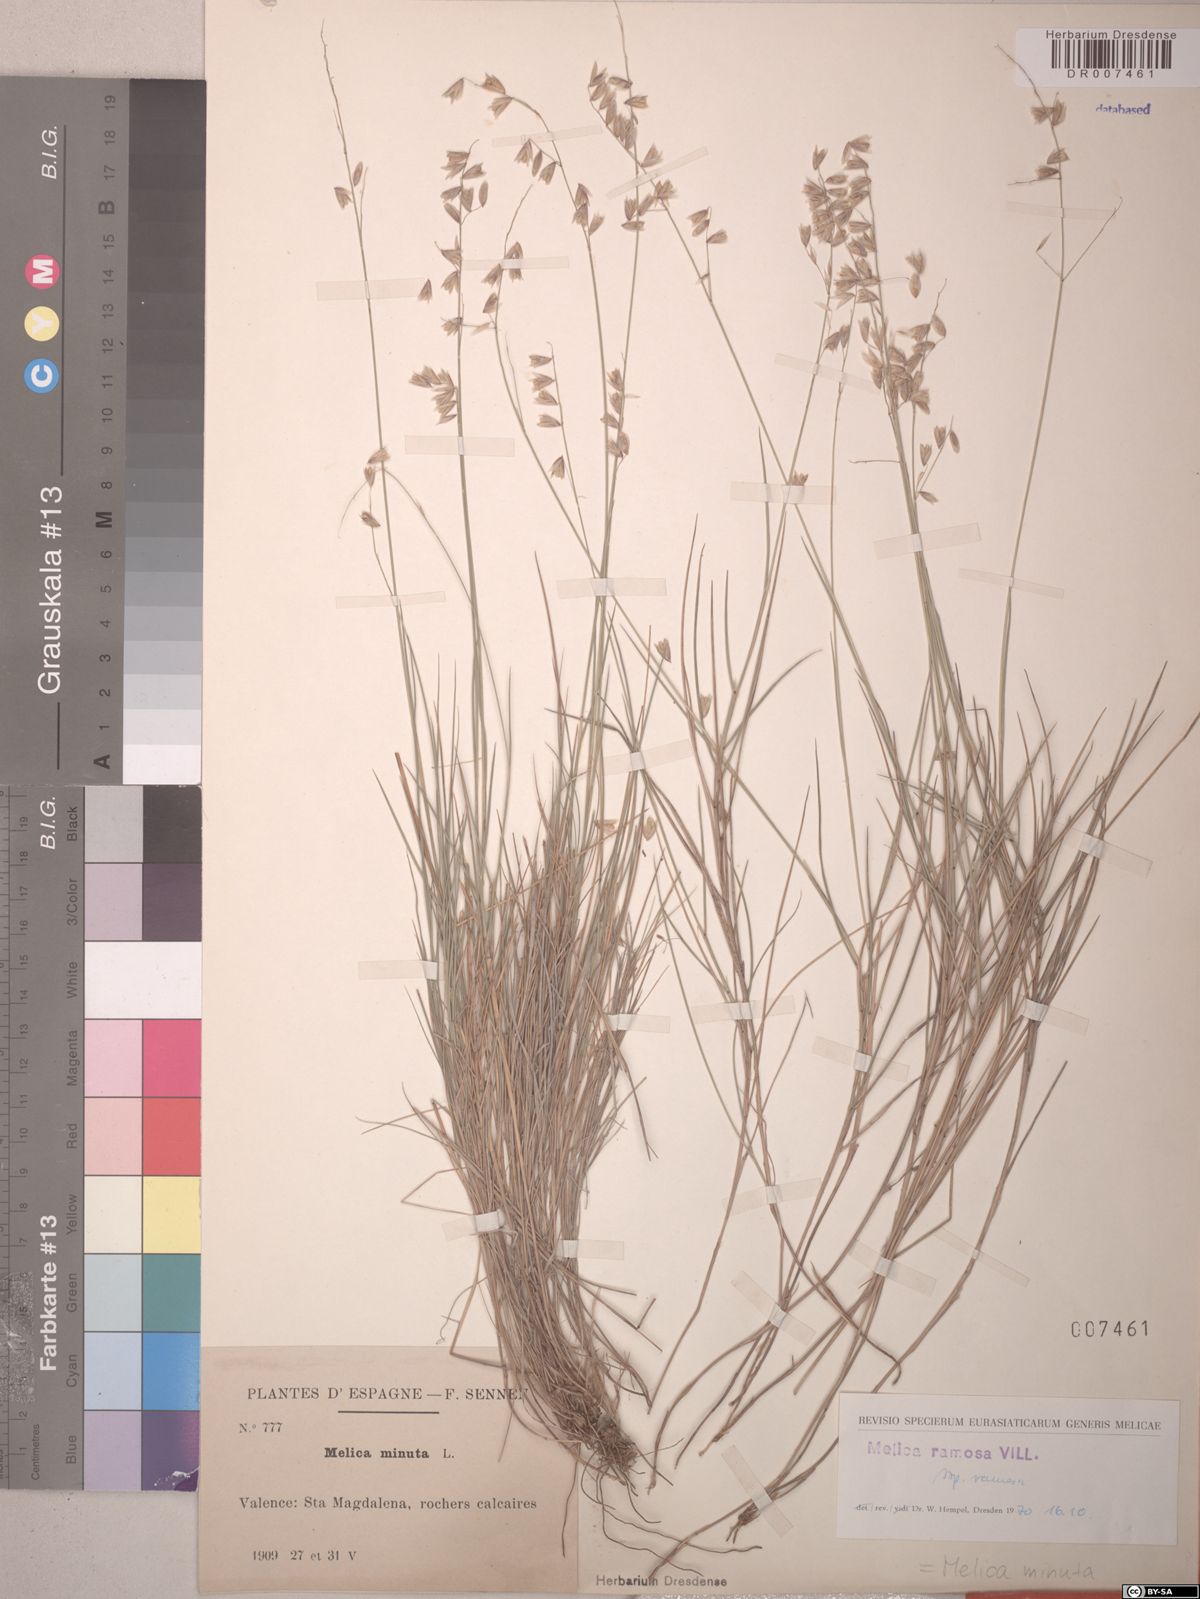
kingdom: Plantae
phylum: Tracheophyta
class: Liliopsida
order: Poales
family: Poaceae
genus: Melica
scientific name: Melica minuta
